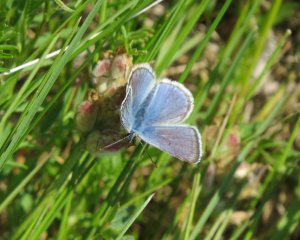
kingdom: Animalia
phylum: Arthropoda
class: Insecta
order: Lepidoptera
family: Lycaenidae
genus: Glaucopsyche
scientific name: Glaucopsyche lygdamus
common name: Silvery Blue
